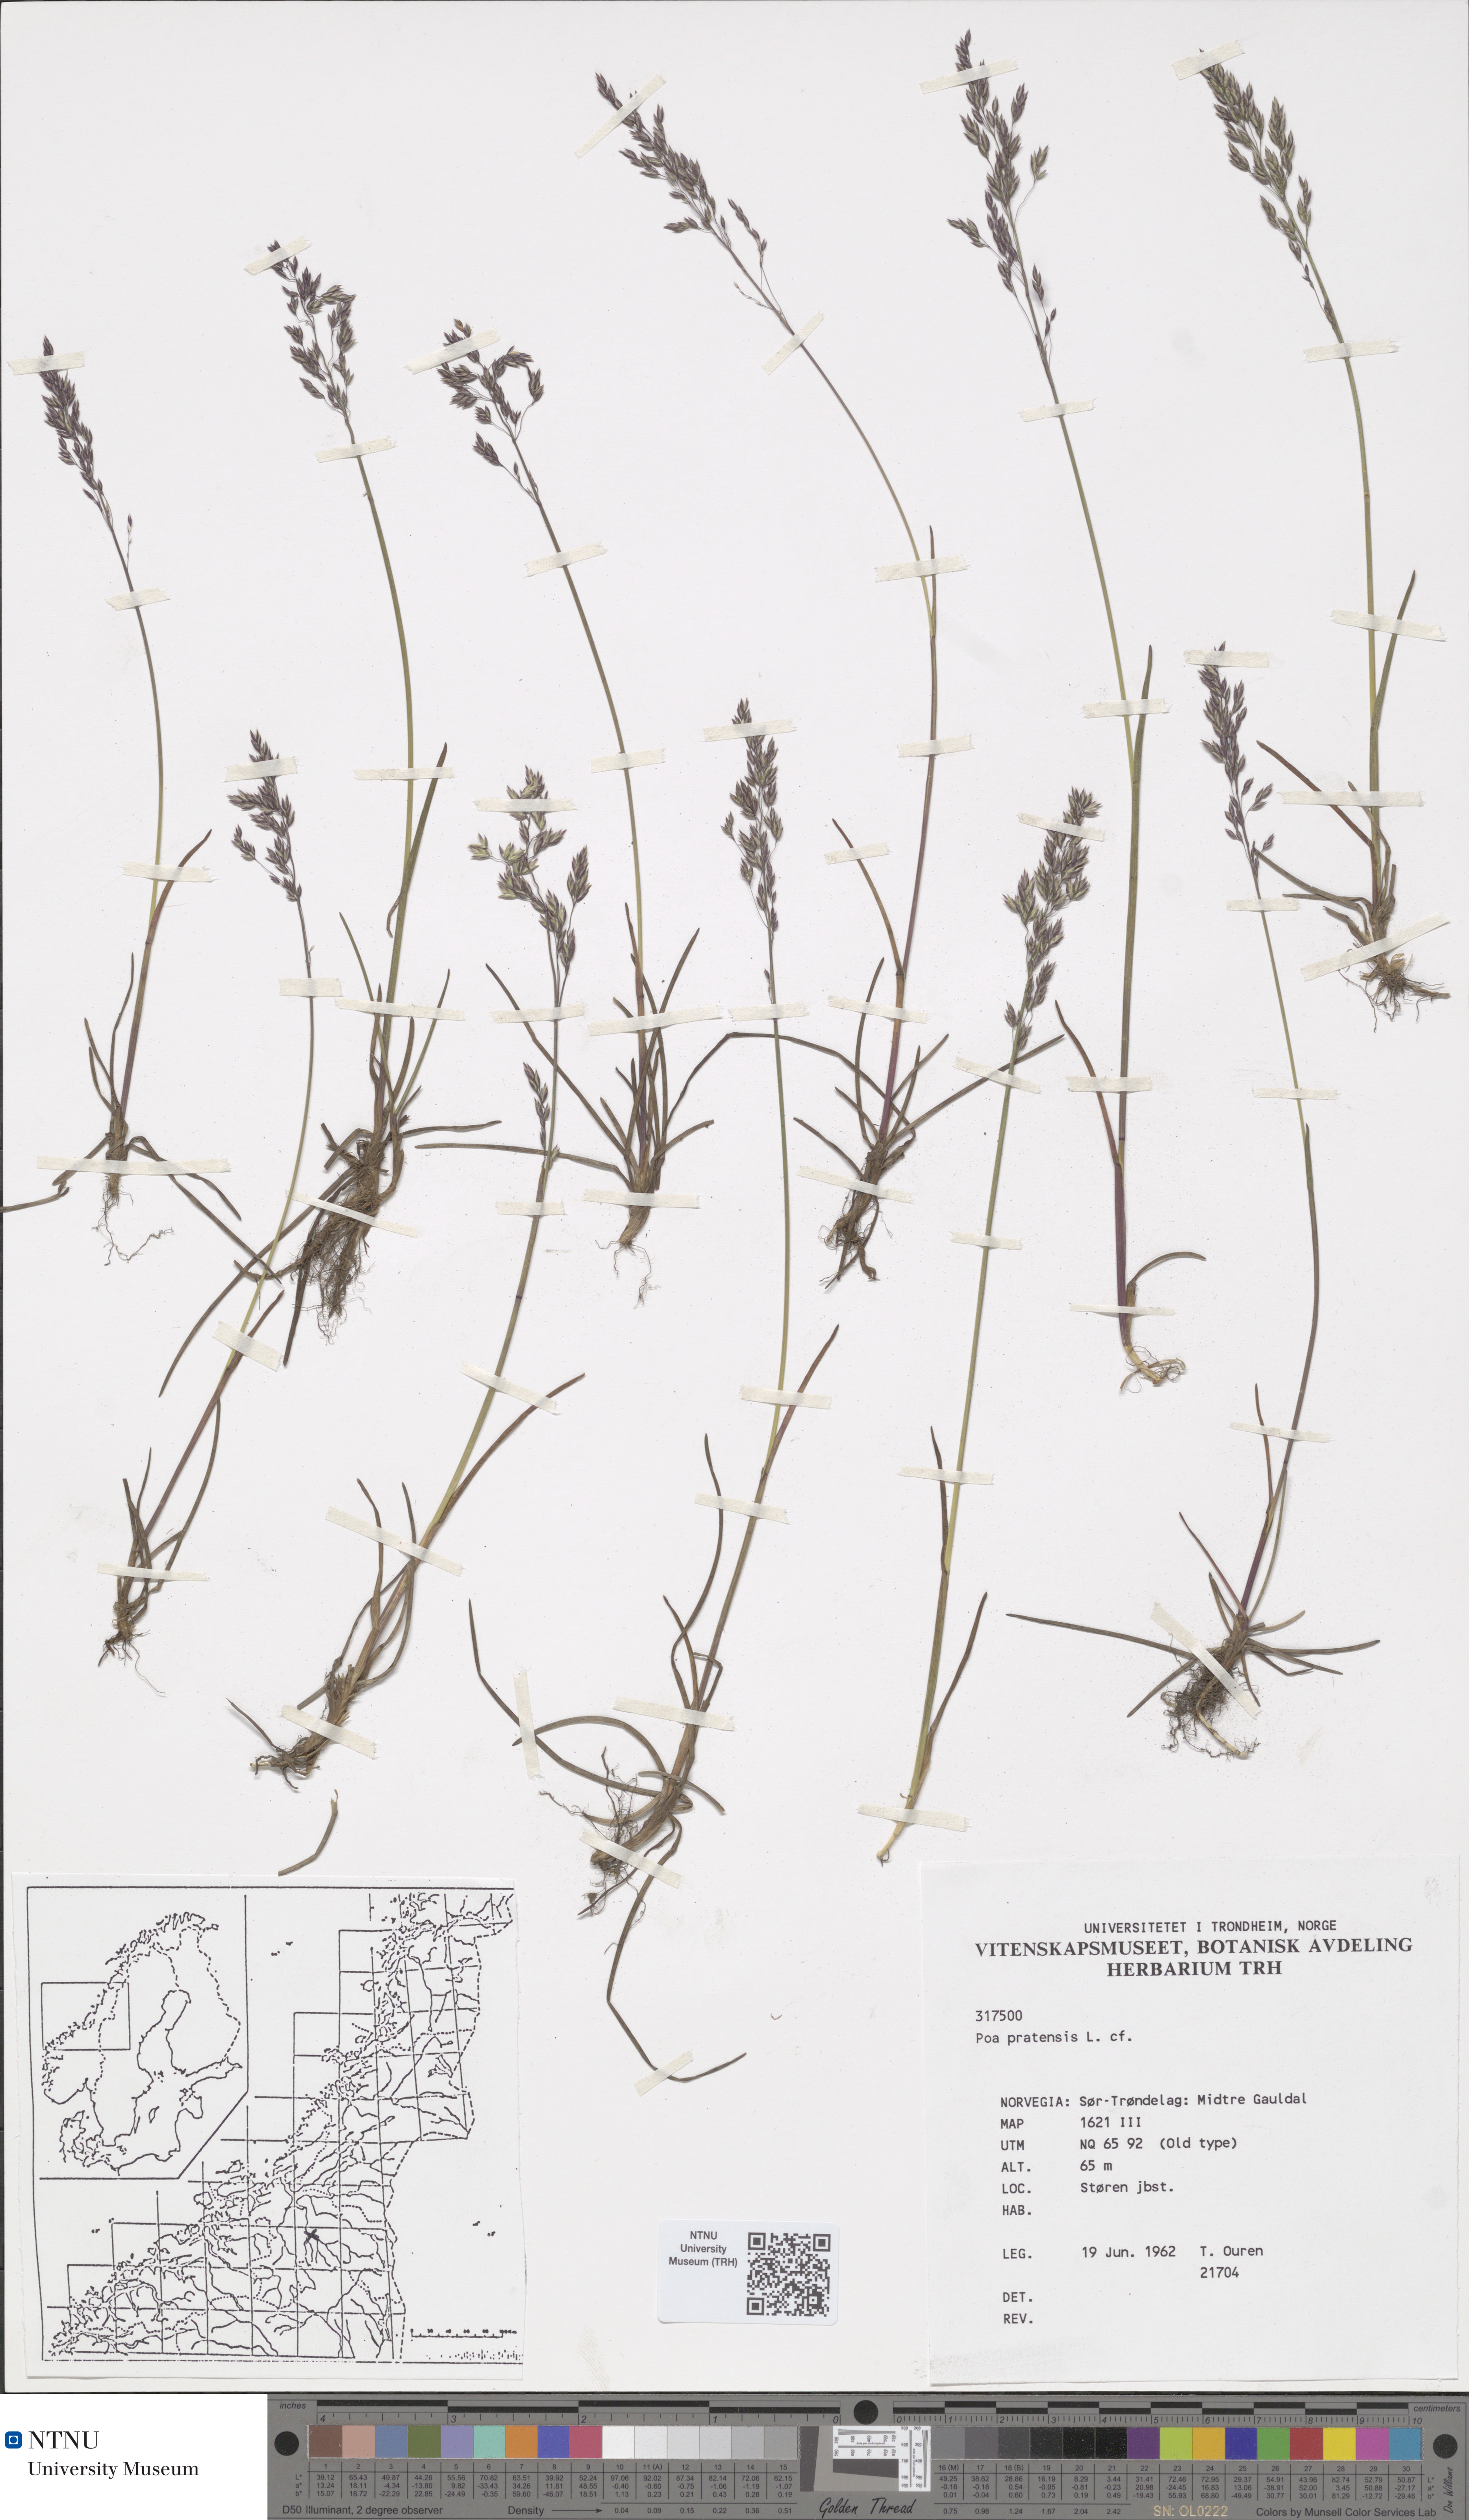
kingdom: Plantae
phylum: Tracheophyta
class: Liliopsida
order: Poales
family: Poaceae
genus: Poa
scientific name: Poa pratensis
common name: Kentucky bluegrass
